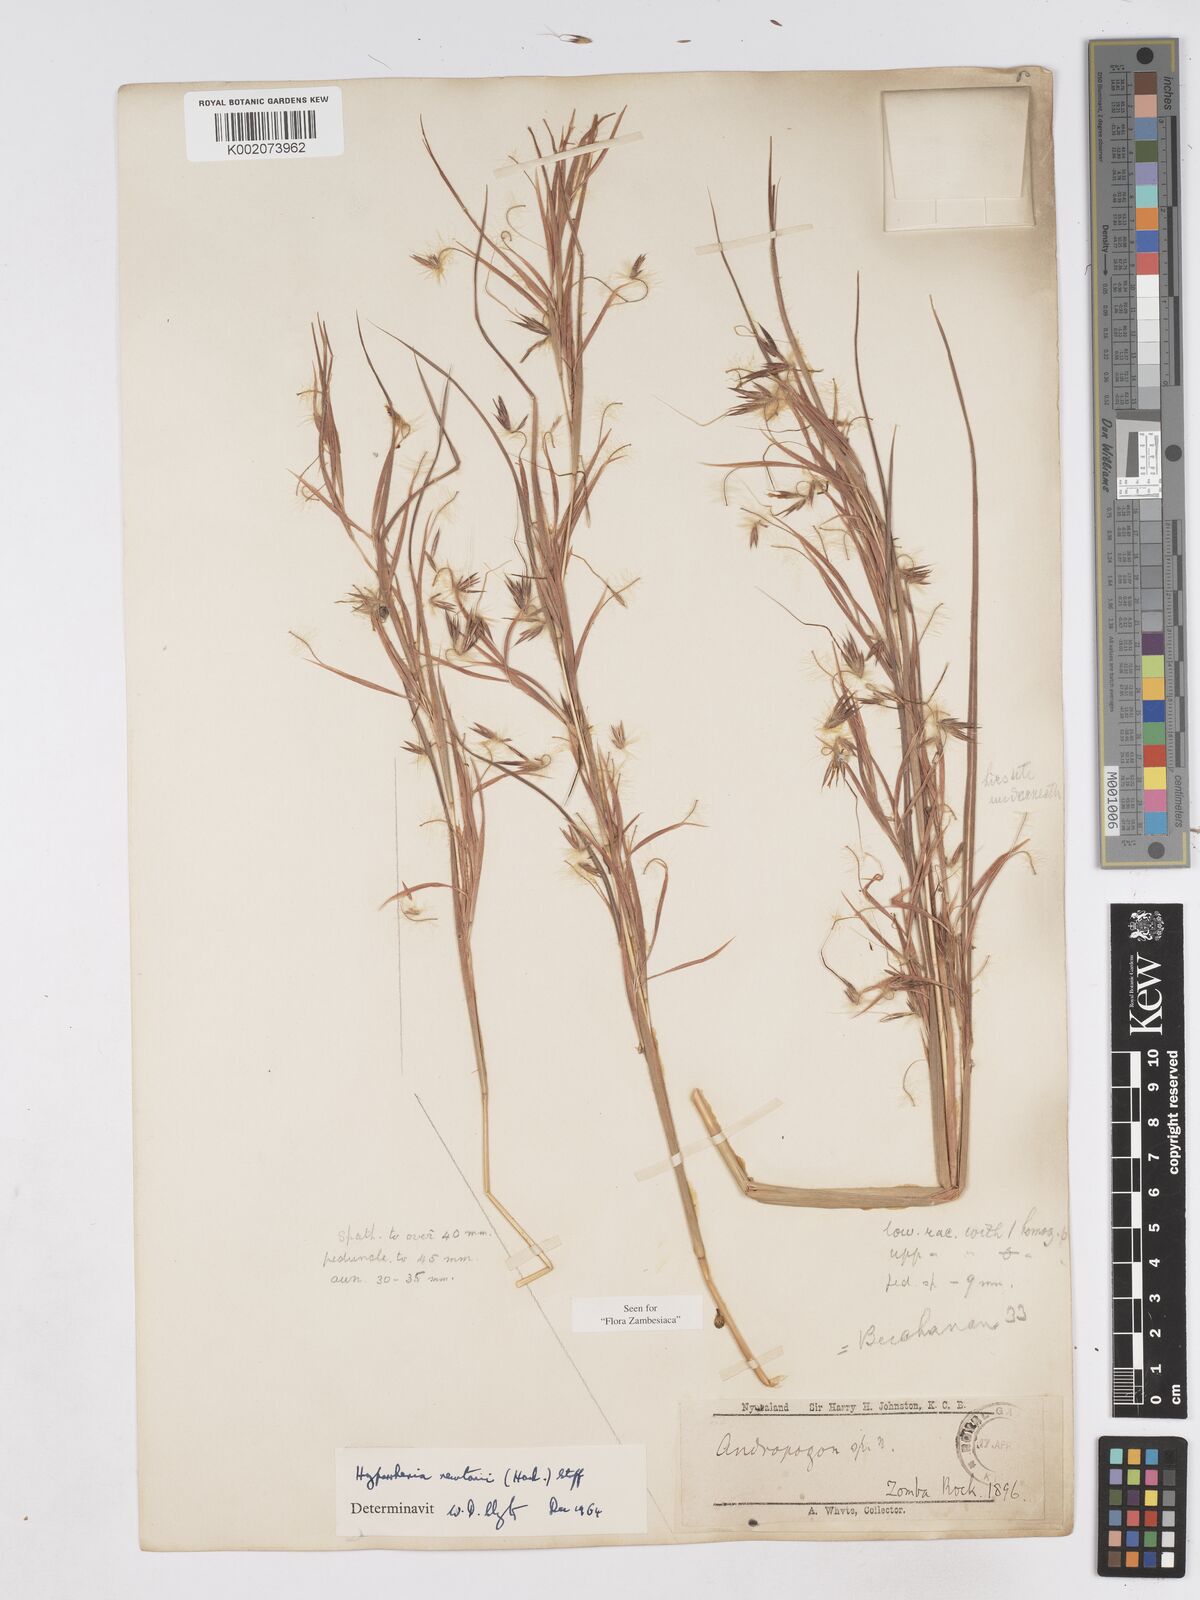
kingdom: Plantae
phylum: Tracheophyta
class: Liliopsida
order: Poales
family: Poaceae
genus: Hyparrhenia
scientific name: Hyparrhenia newtonii
